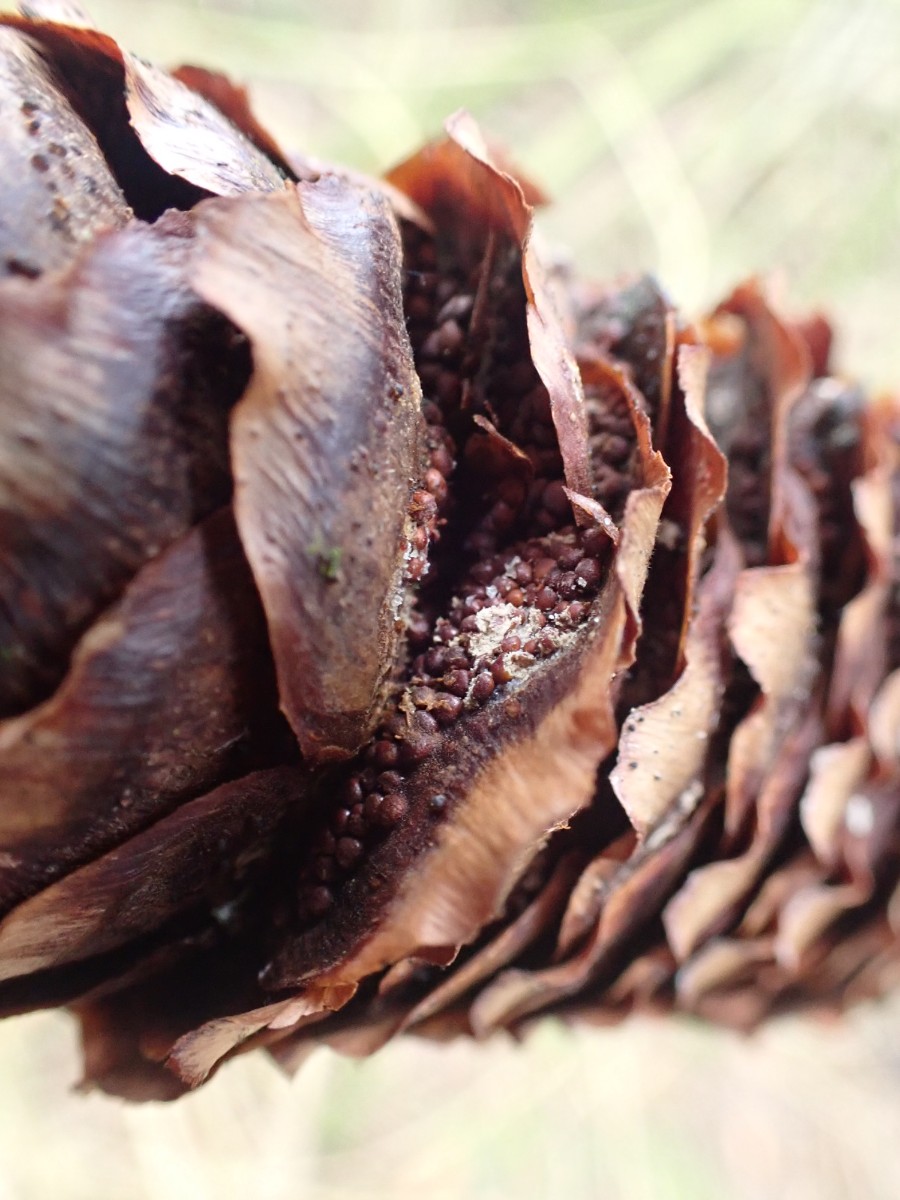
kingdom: Fungi
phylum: Basidiomycota
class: Pucciniomycetes
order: Pucciniales
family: Pucciniastraceae
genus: Thekopsora
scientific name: Thekopsora areolata
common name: grankogle-nålerust
